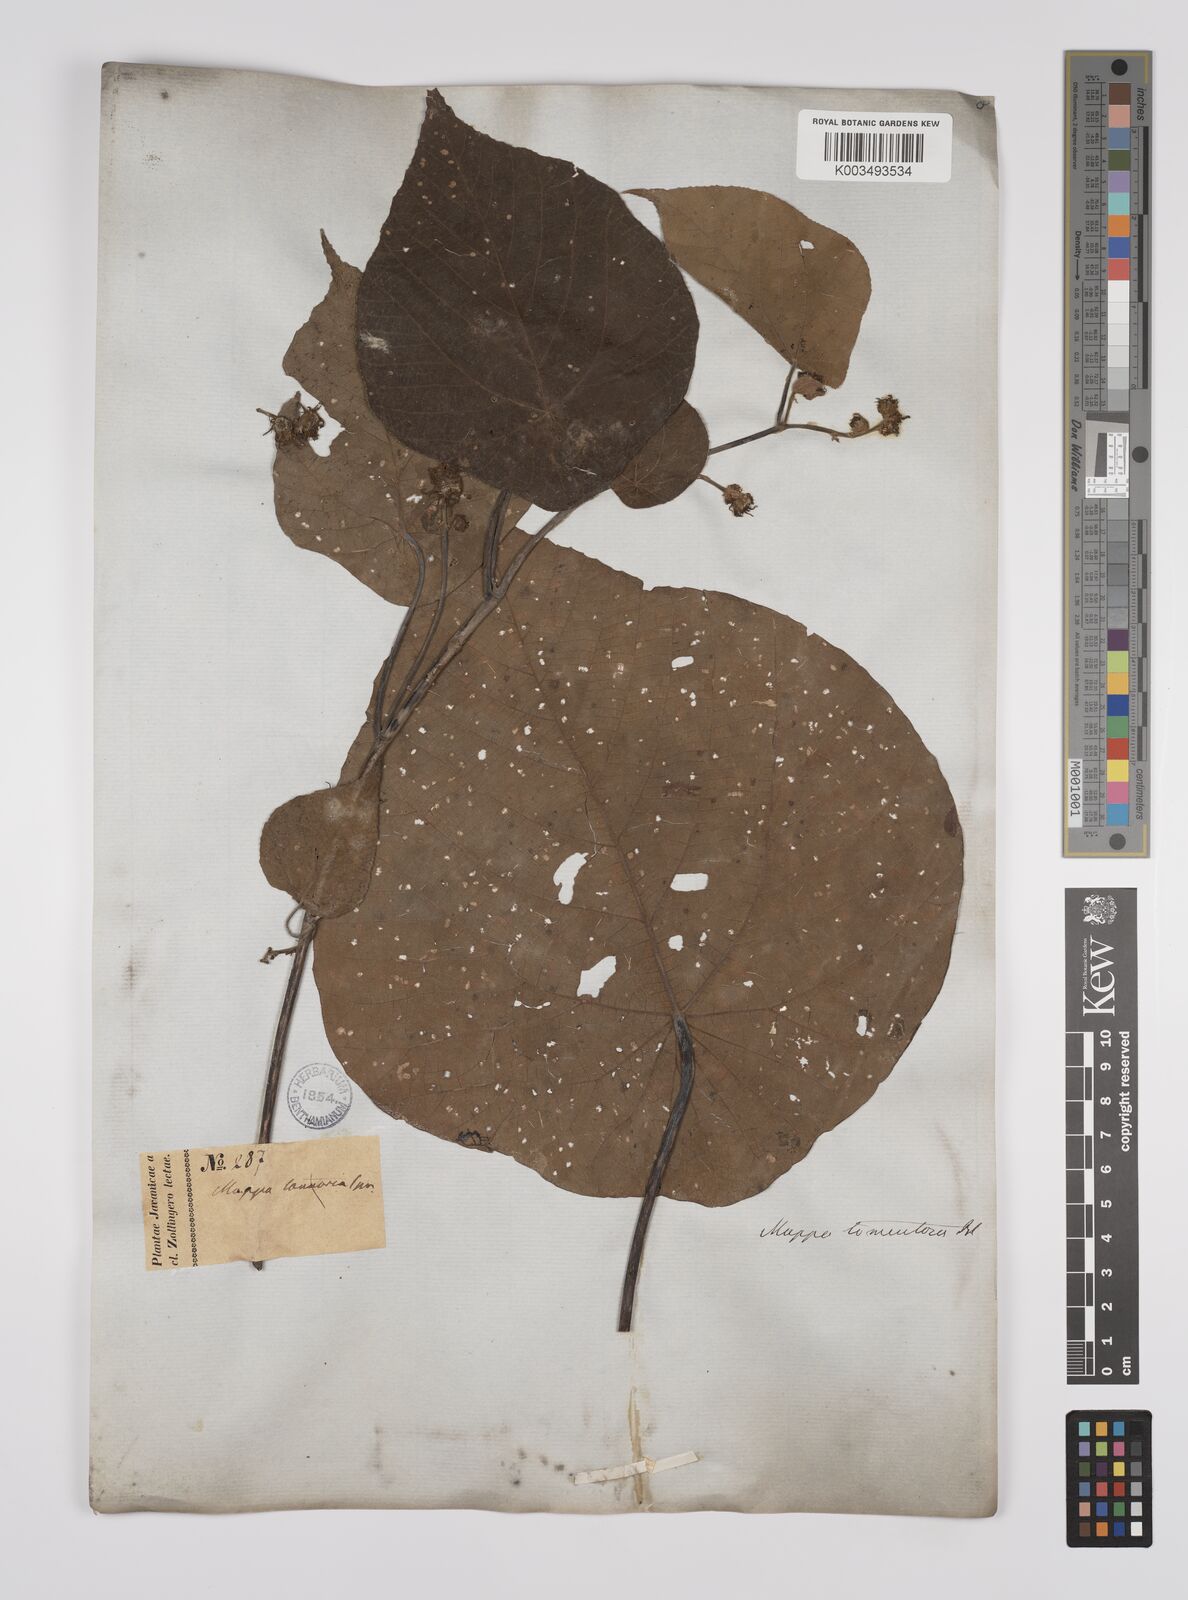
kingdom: Plantae
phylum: Tracheophyta
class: Magnoliopsida
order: Malpighiales
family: Euphorbiaceae
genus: Macaranga
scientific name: Macaranga tanarius
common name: Parasol leaf tree
